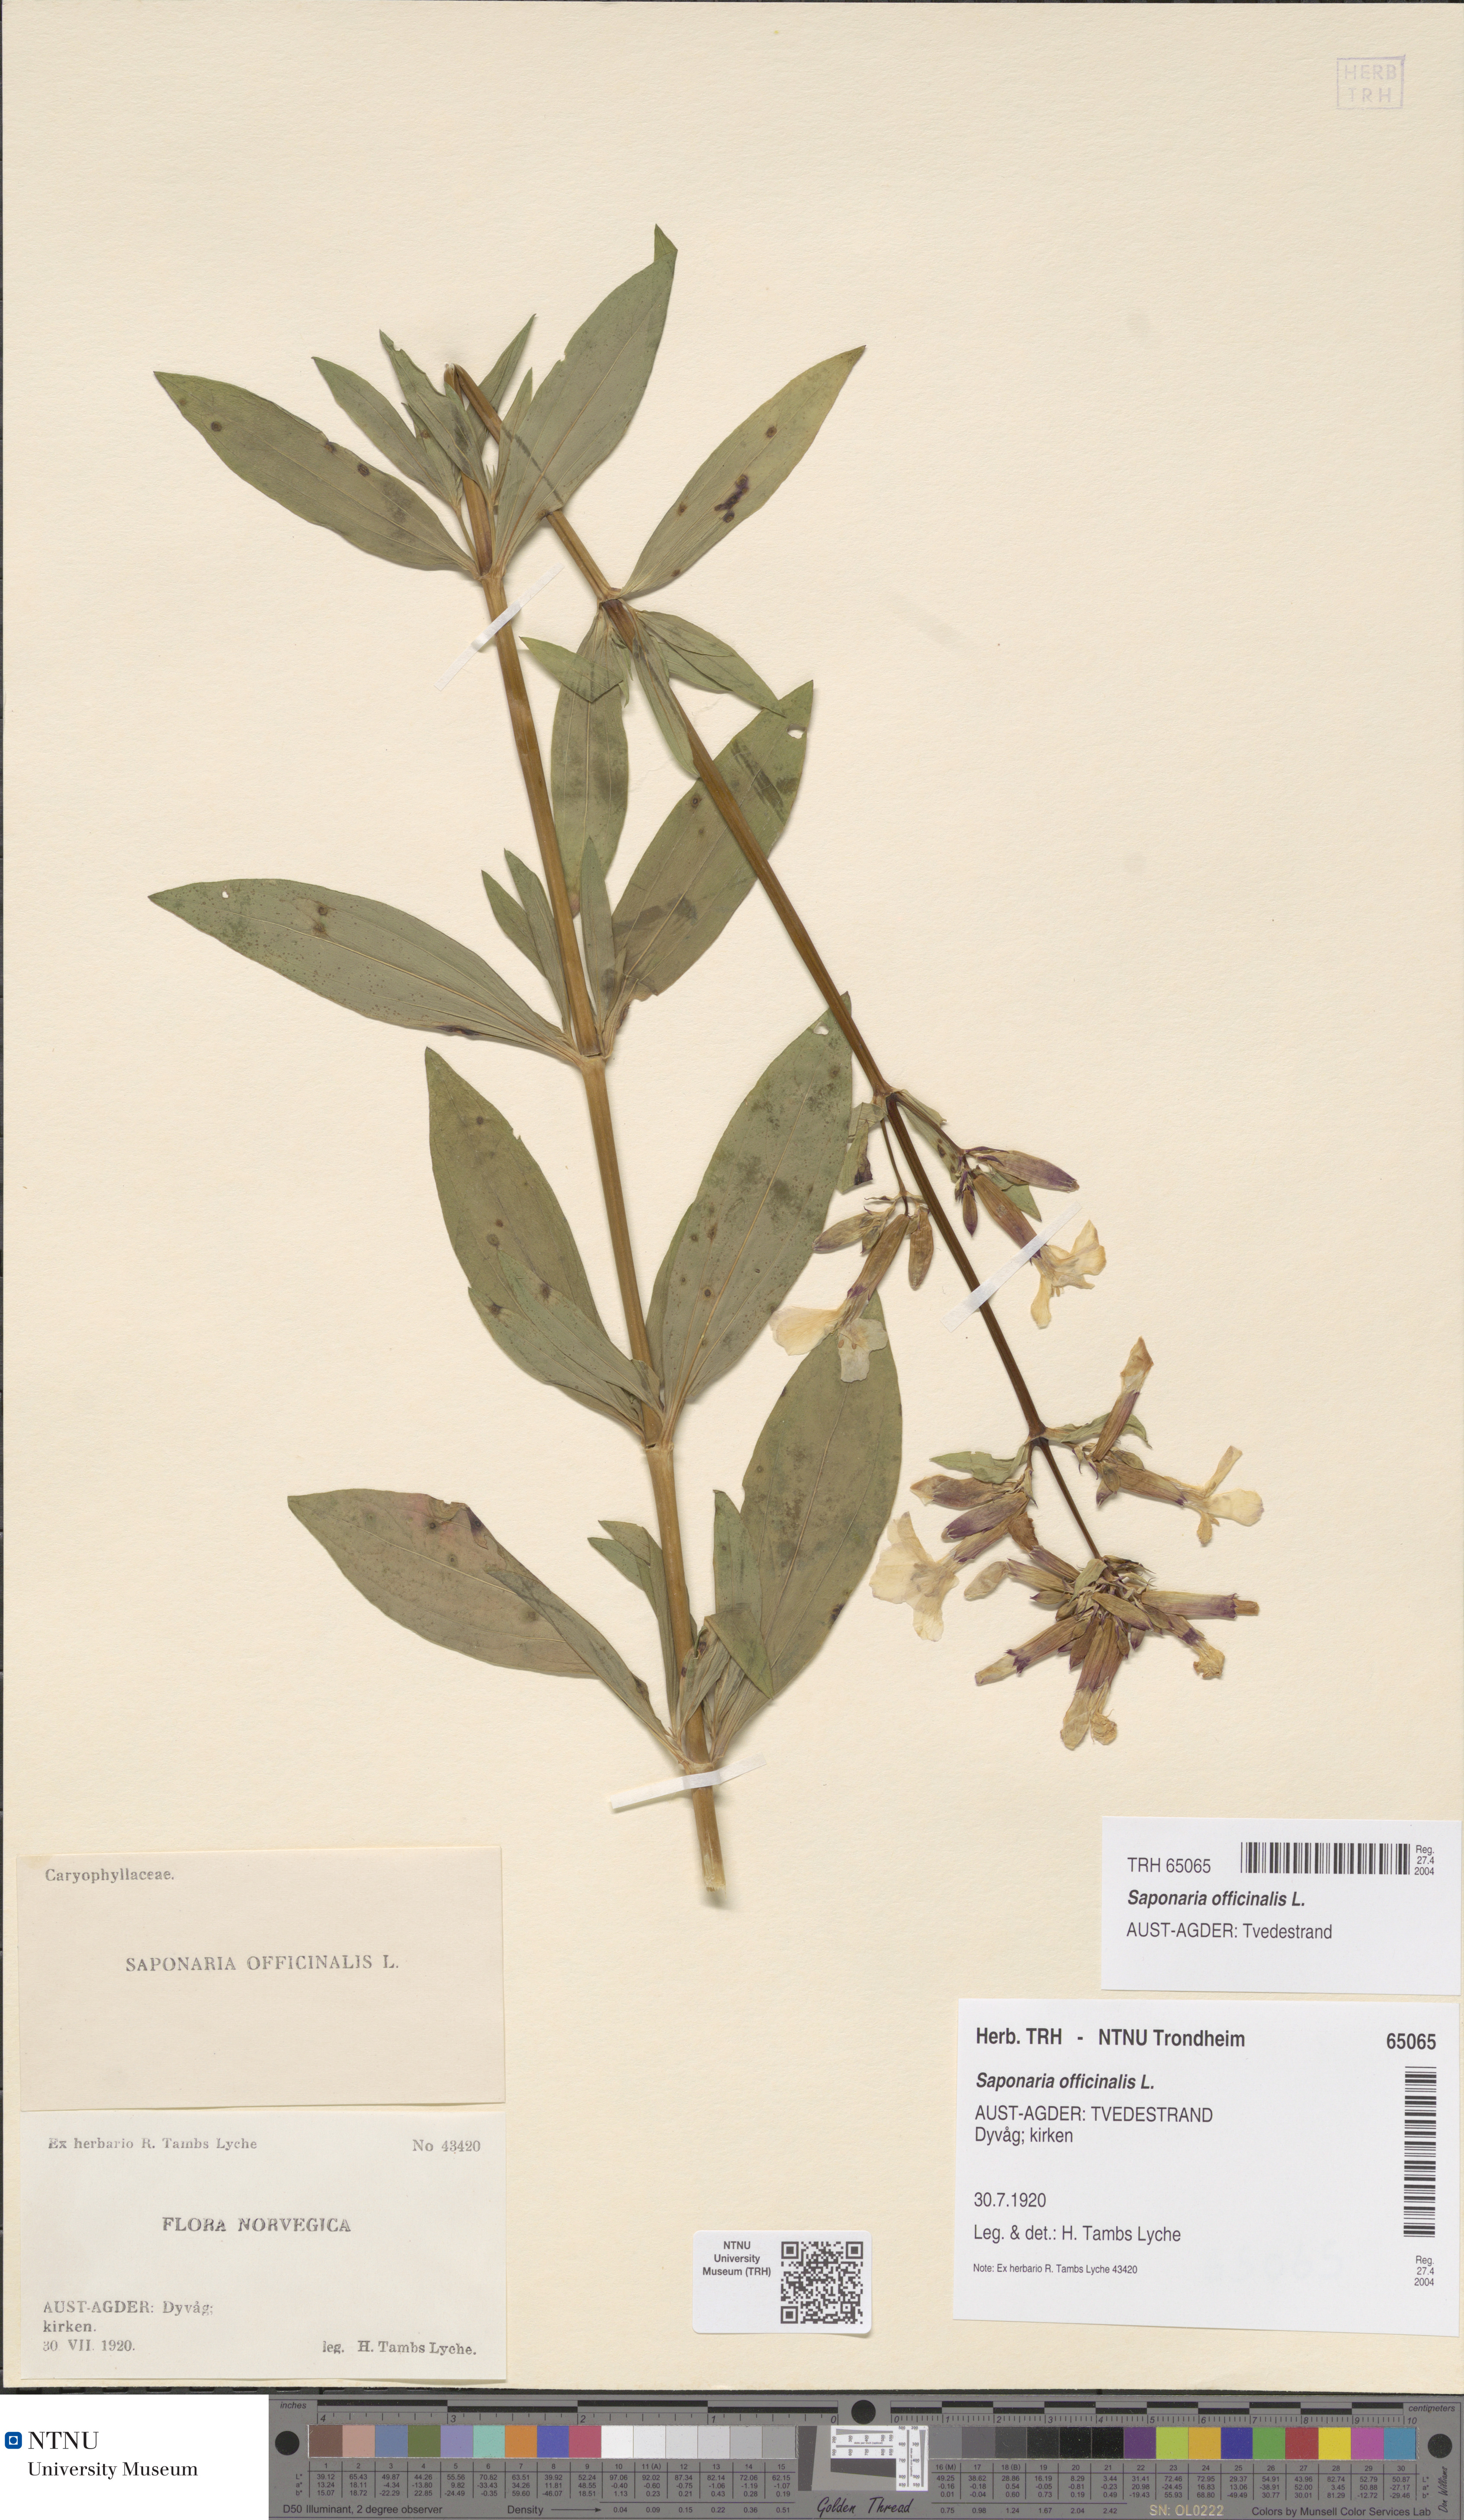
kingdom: Plantae
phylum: Tracheophyta
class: Magnoliopsida
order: Caryophyllales
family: Caryophyllaceae
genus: Saponaria
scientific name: Saponaria officinalis
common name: Soapwort
